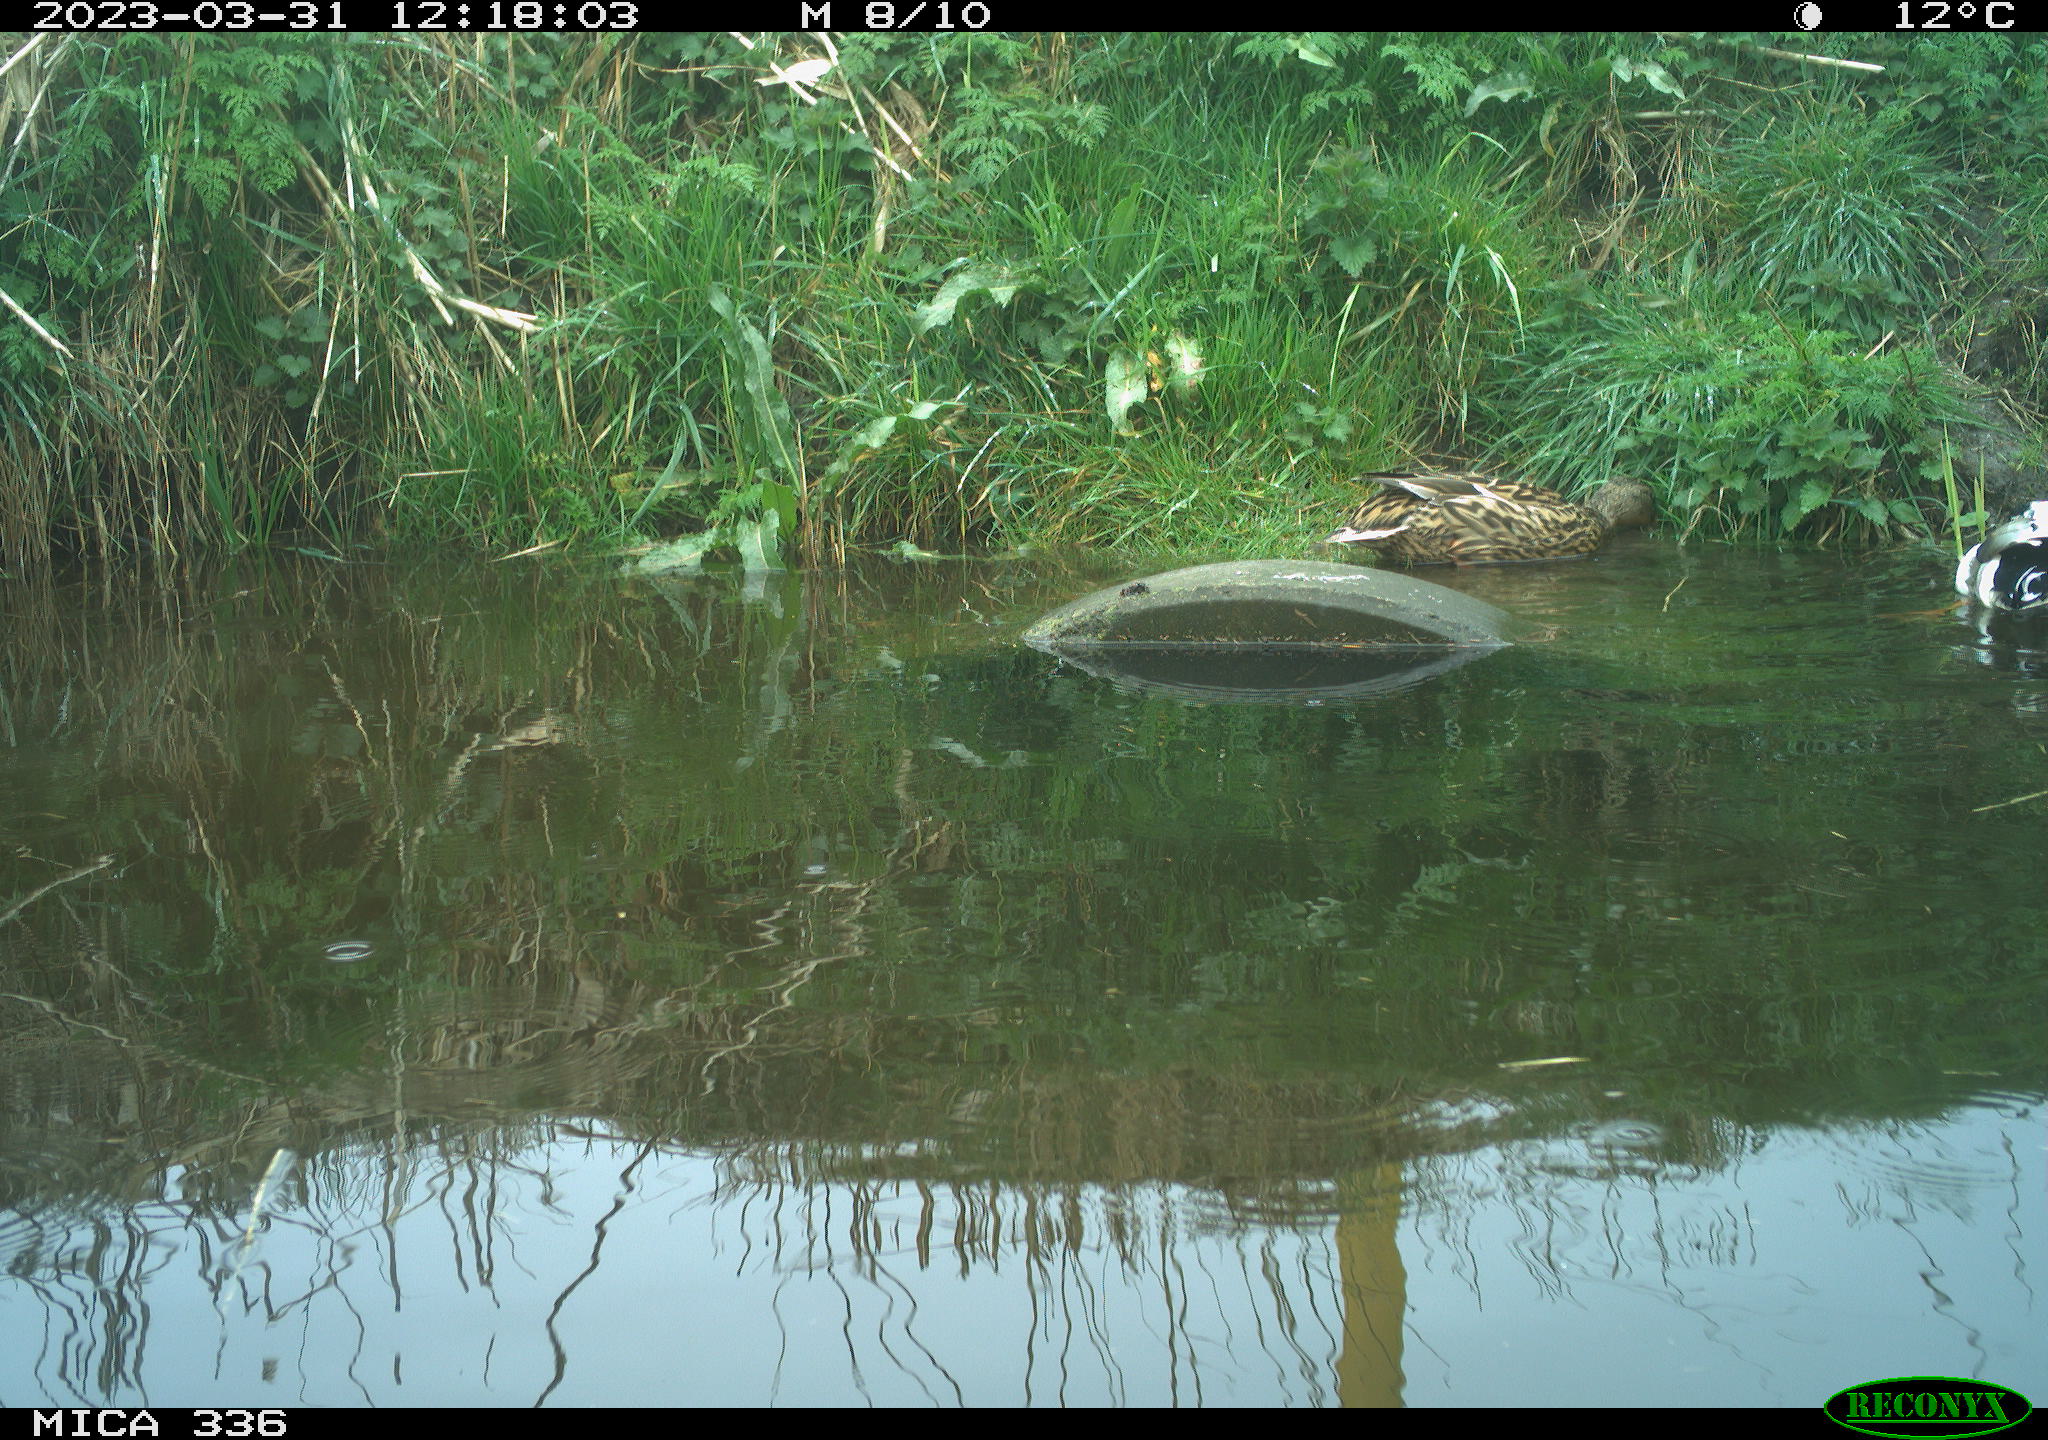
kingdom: Animalia
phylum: Chordata
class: Aves
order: Anseriformes
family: Anatidae
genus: Anas
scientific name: Anas
